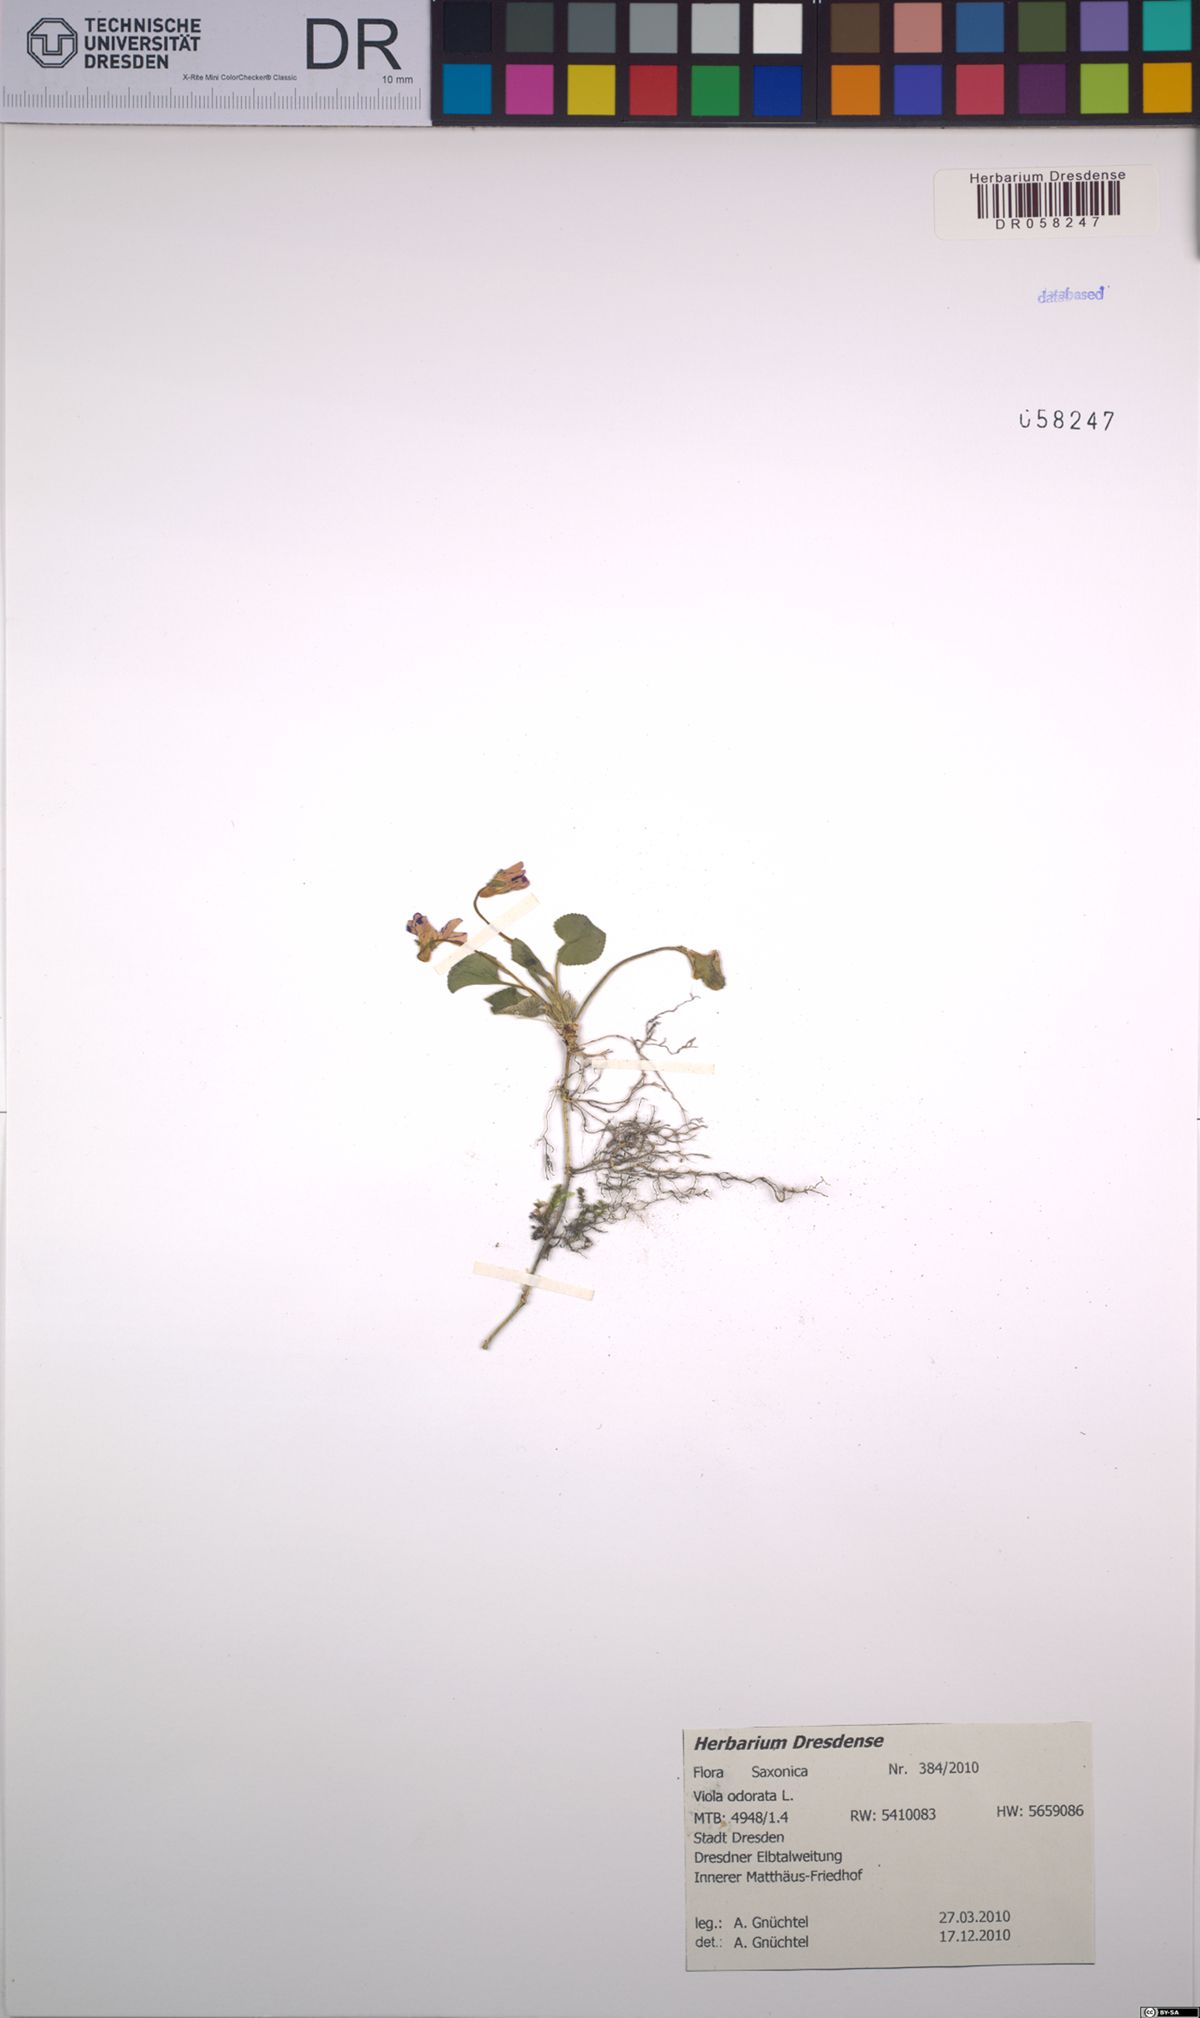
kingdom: Plantae
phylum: Tracheophyta
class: Magnoliopsida
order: Malpighiales
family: Violaceae
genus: Viola
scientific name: Viola odorata
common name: Sweet violet
